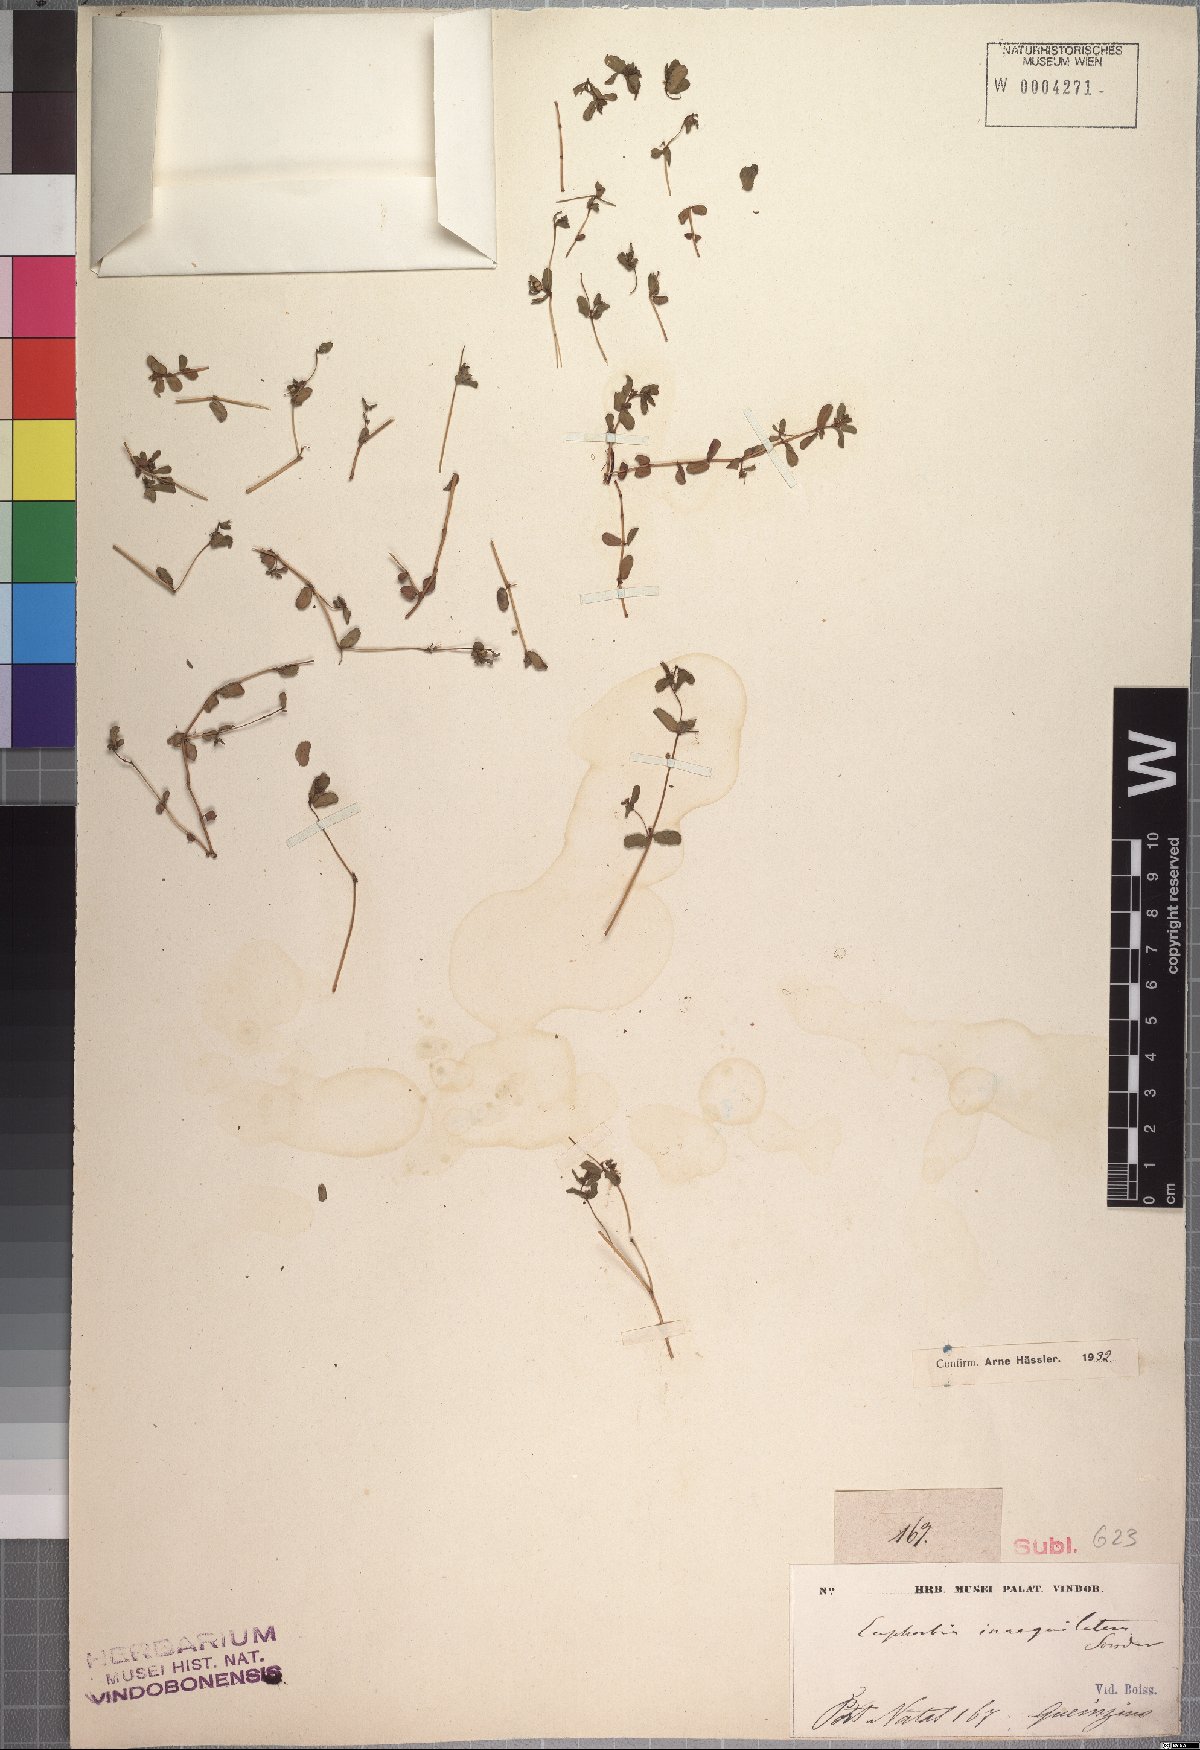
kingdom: Plantae
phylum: Tracheophyta
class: Magnoliopsida
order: Malpighiales
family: Euphorbiaceae
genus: Euphorbia
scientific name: Euphorbia inaequilatera
